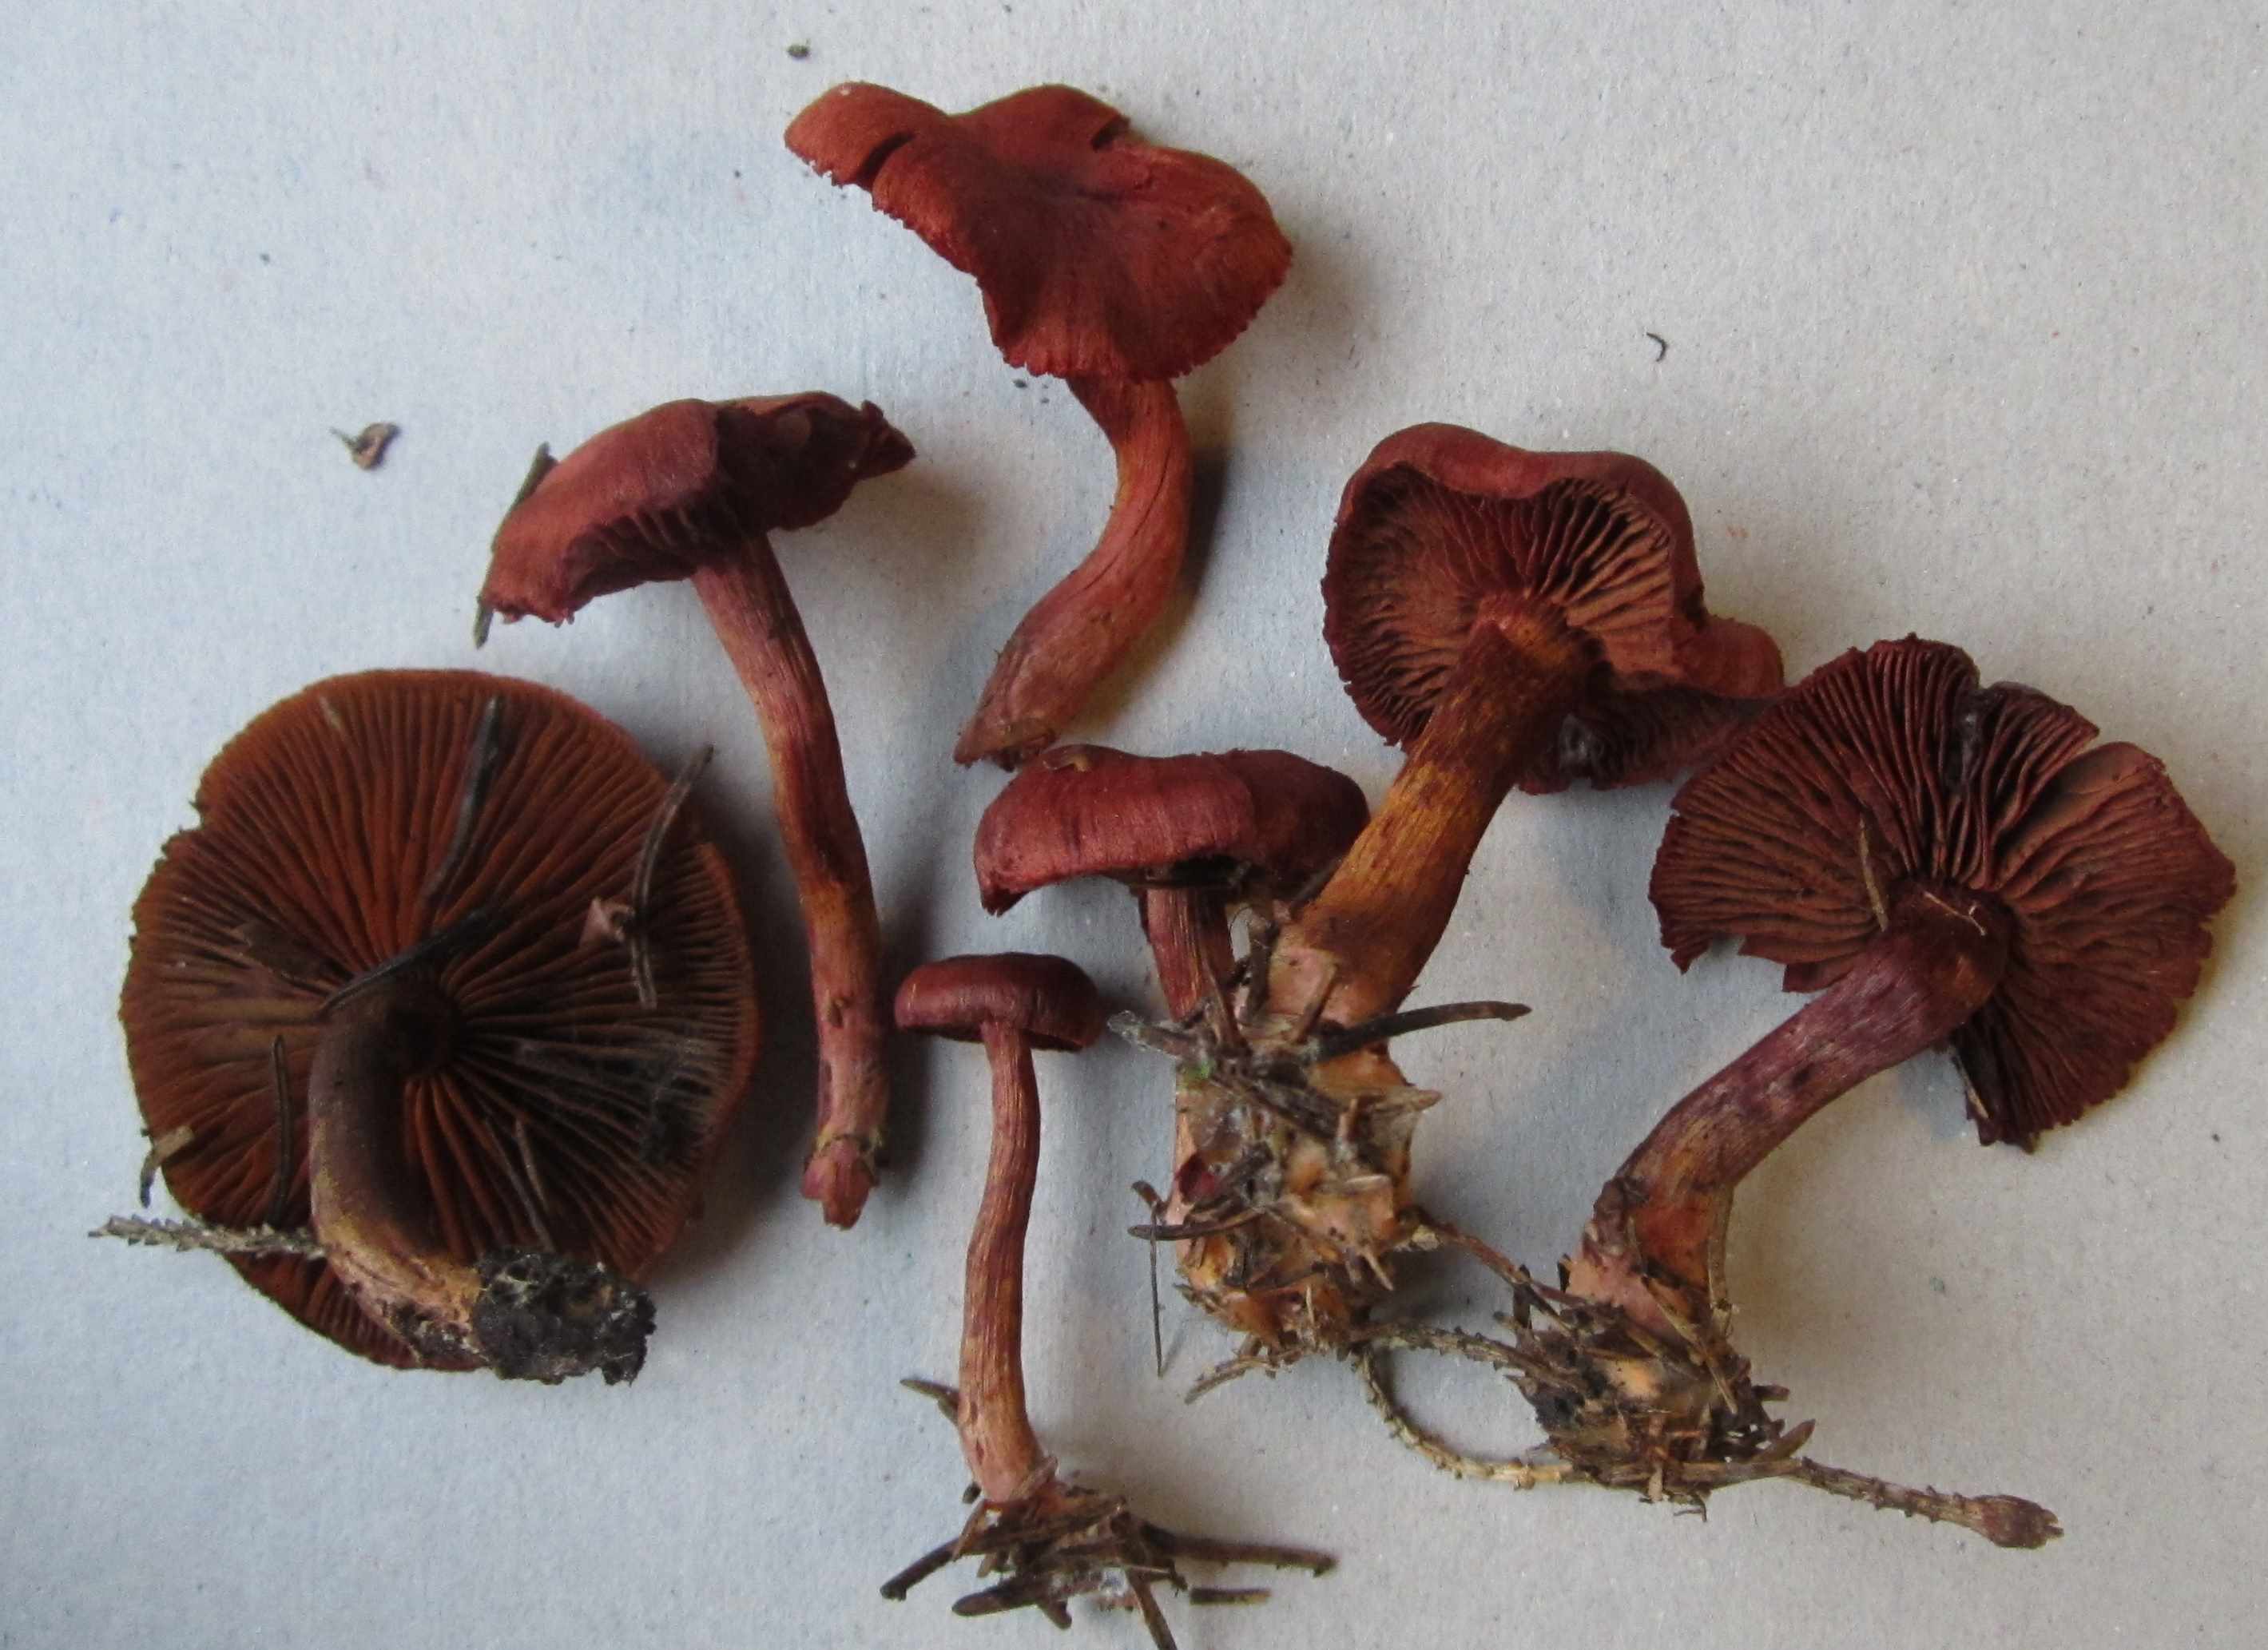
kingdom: Fungi
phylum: Basidiomycota
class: Agaricomycetes
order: Agaricales
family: Cortinariaceae
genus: Cortinarius
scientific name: Cortinarius sanguineus
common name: blodrød slørhat
